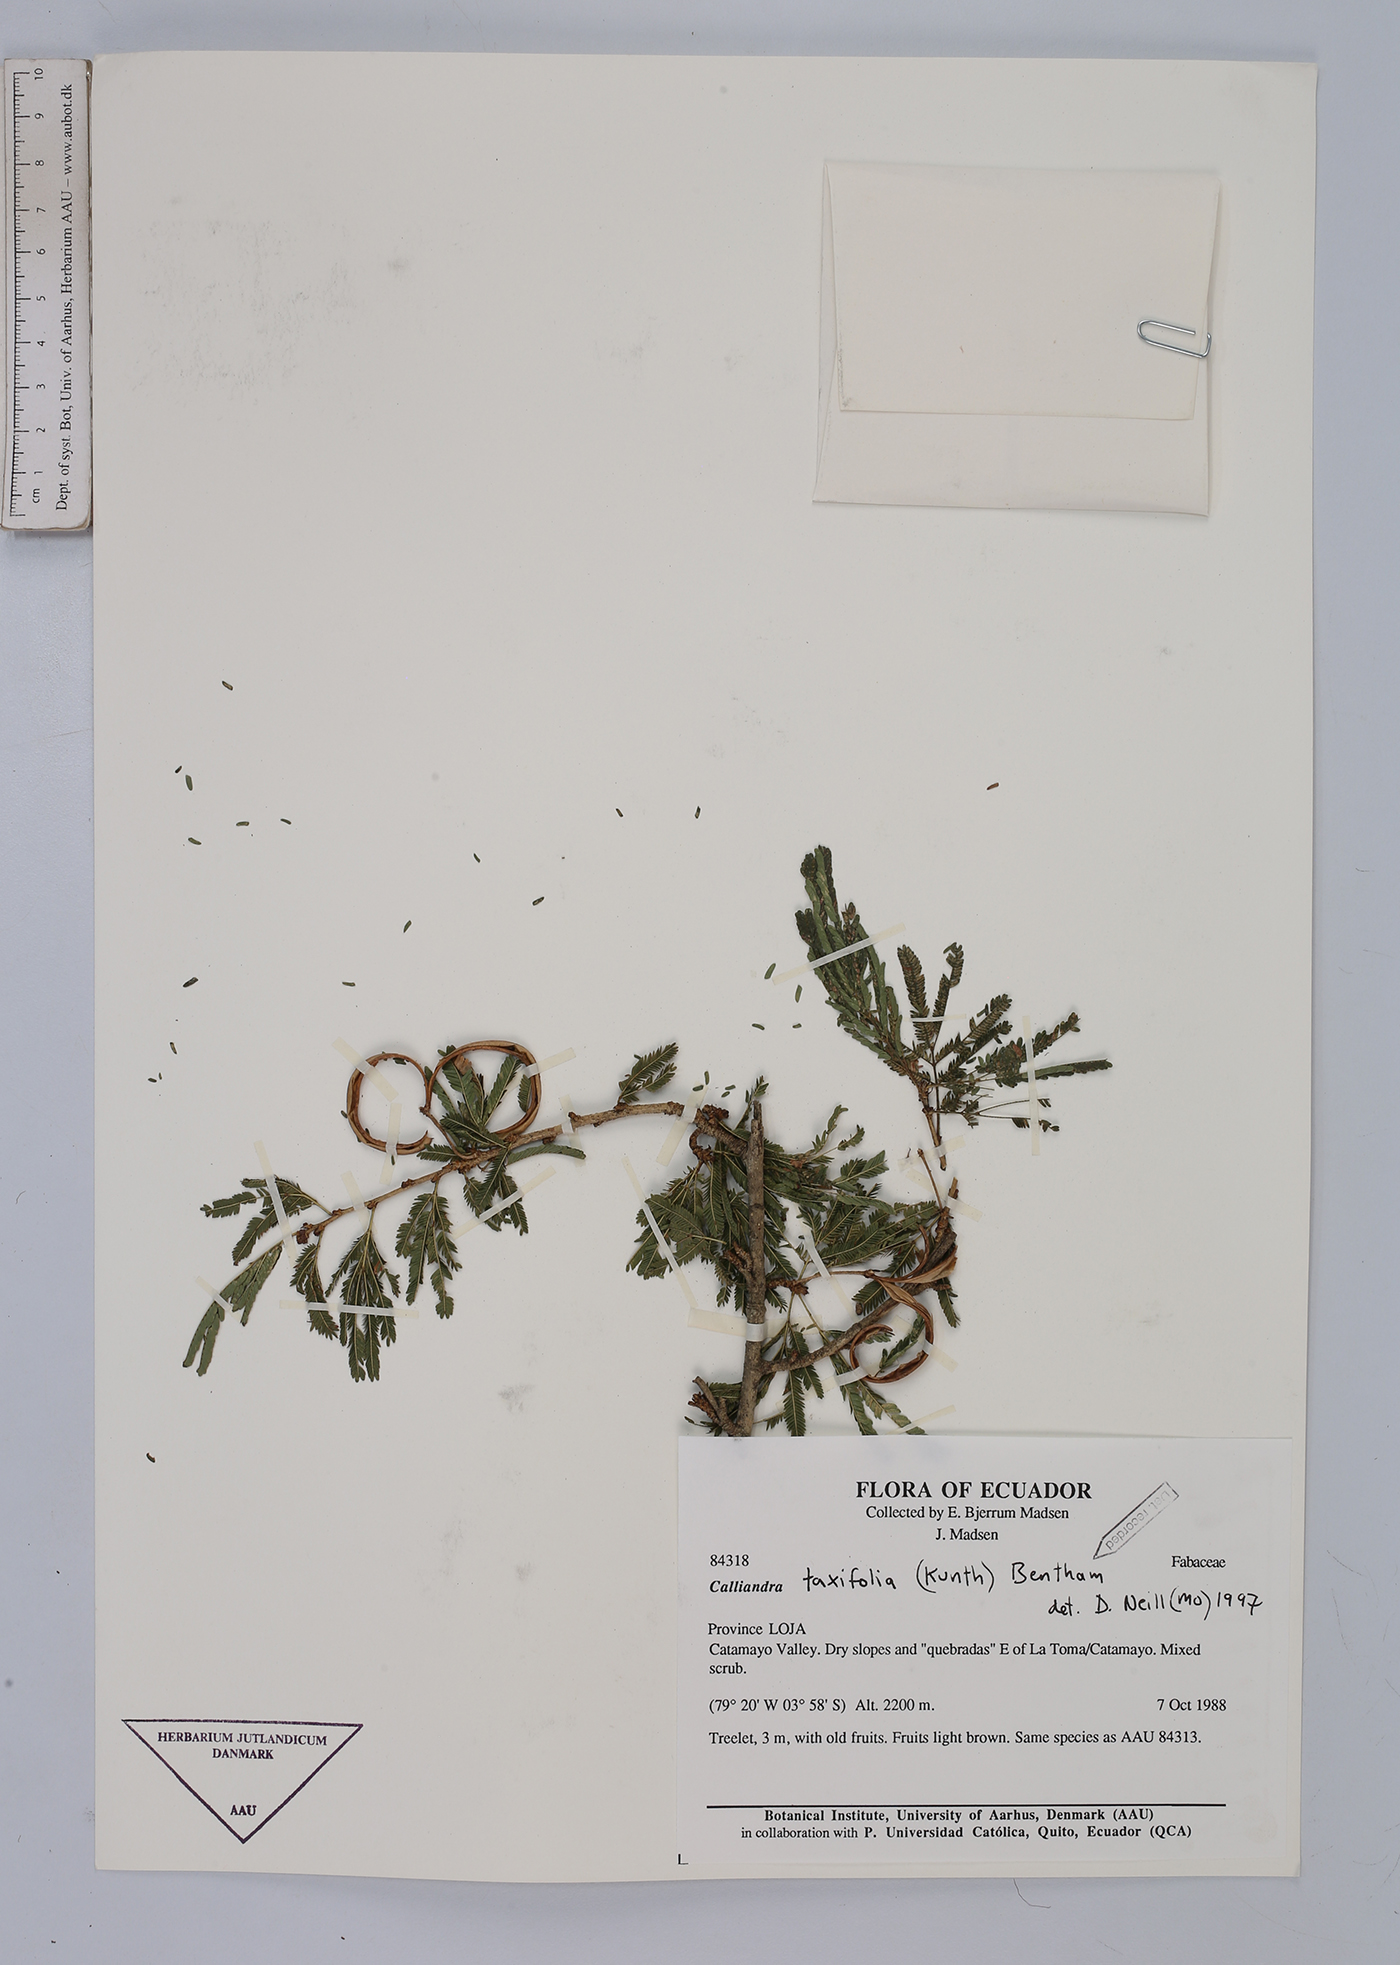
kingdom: Plantae
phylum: Tracheophyta
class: Magnoliopsida
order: Fabales
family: Fabaceae
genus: Calliandra
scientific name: Calliandra taxifolia
